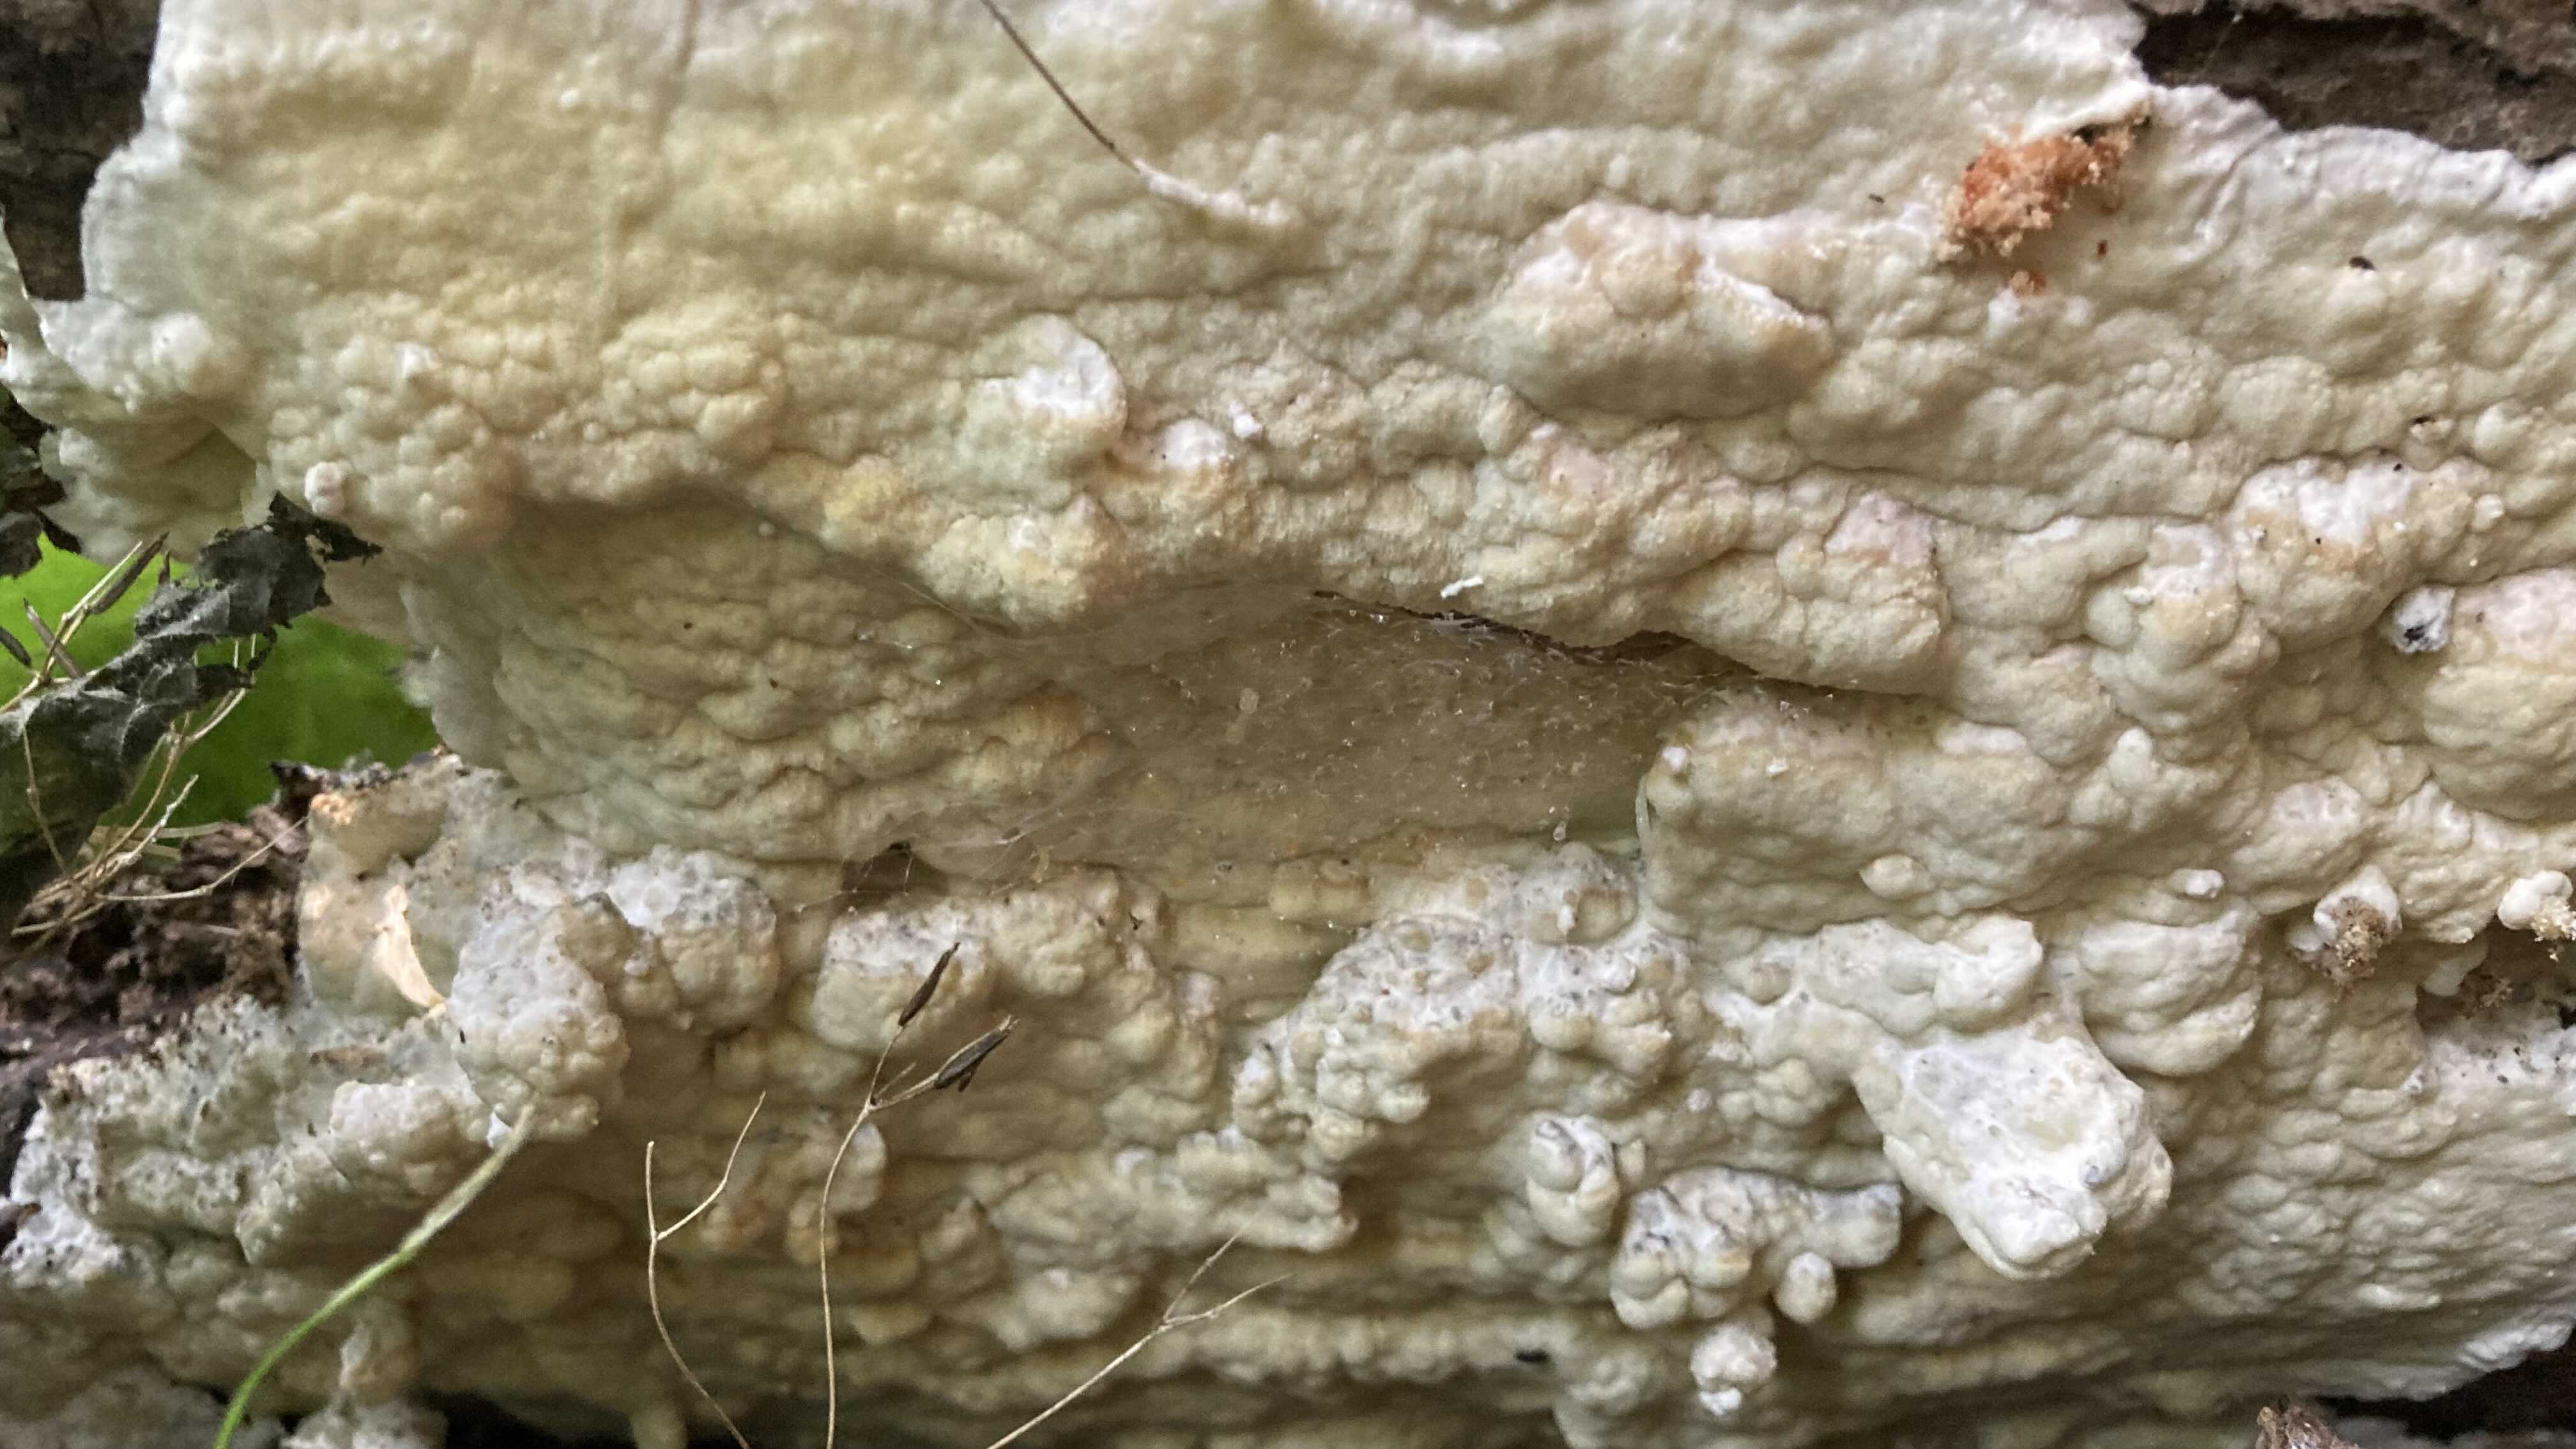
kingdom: Fungi
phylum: Basidiomycota
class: Agaricomycetes
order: Polyporales
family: Irpicaceae
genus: Gloeoporus
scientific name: Gloeoporus pannocinctus
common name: grøngul foldporesvamp
